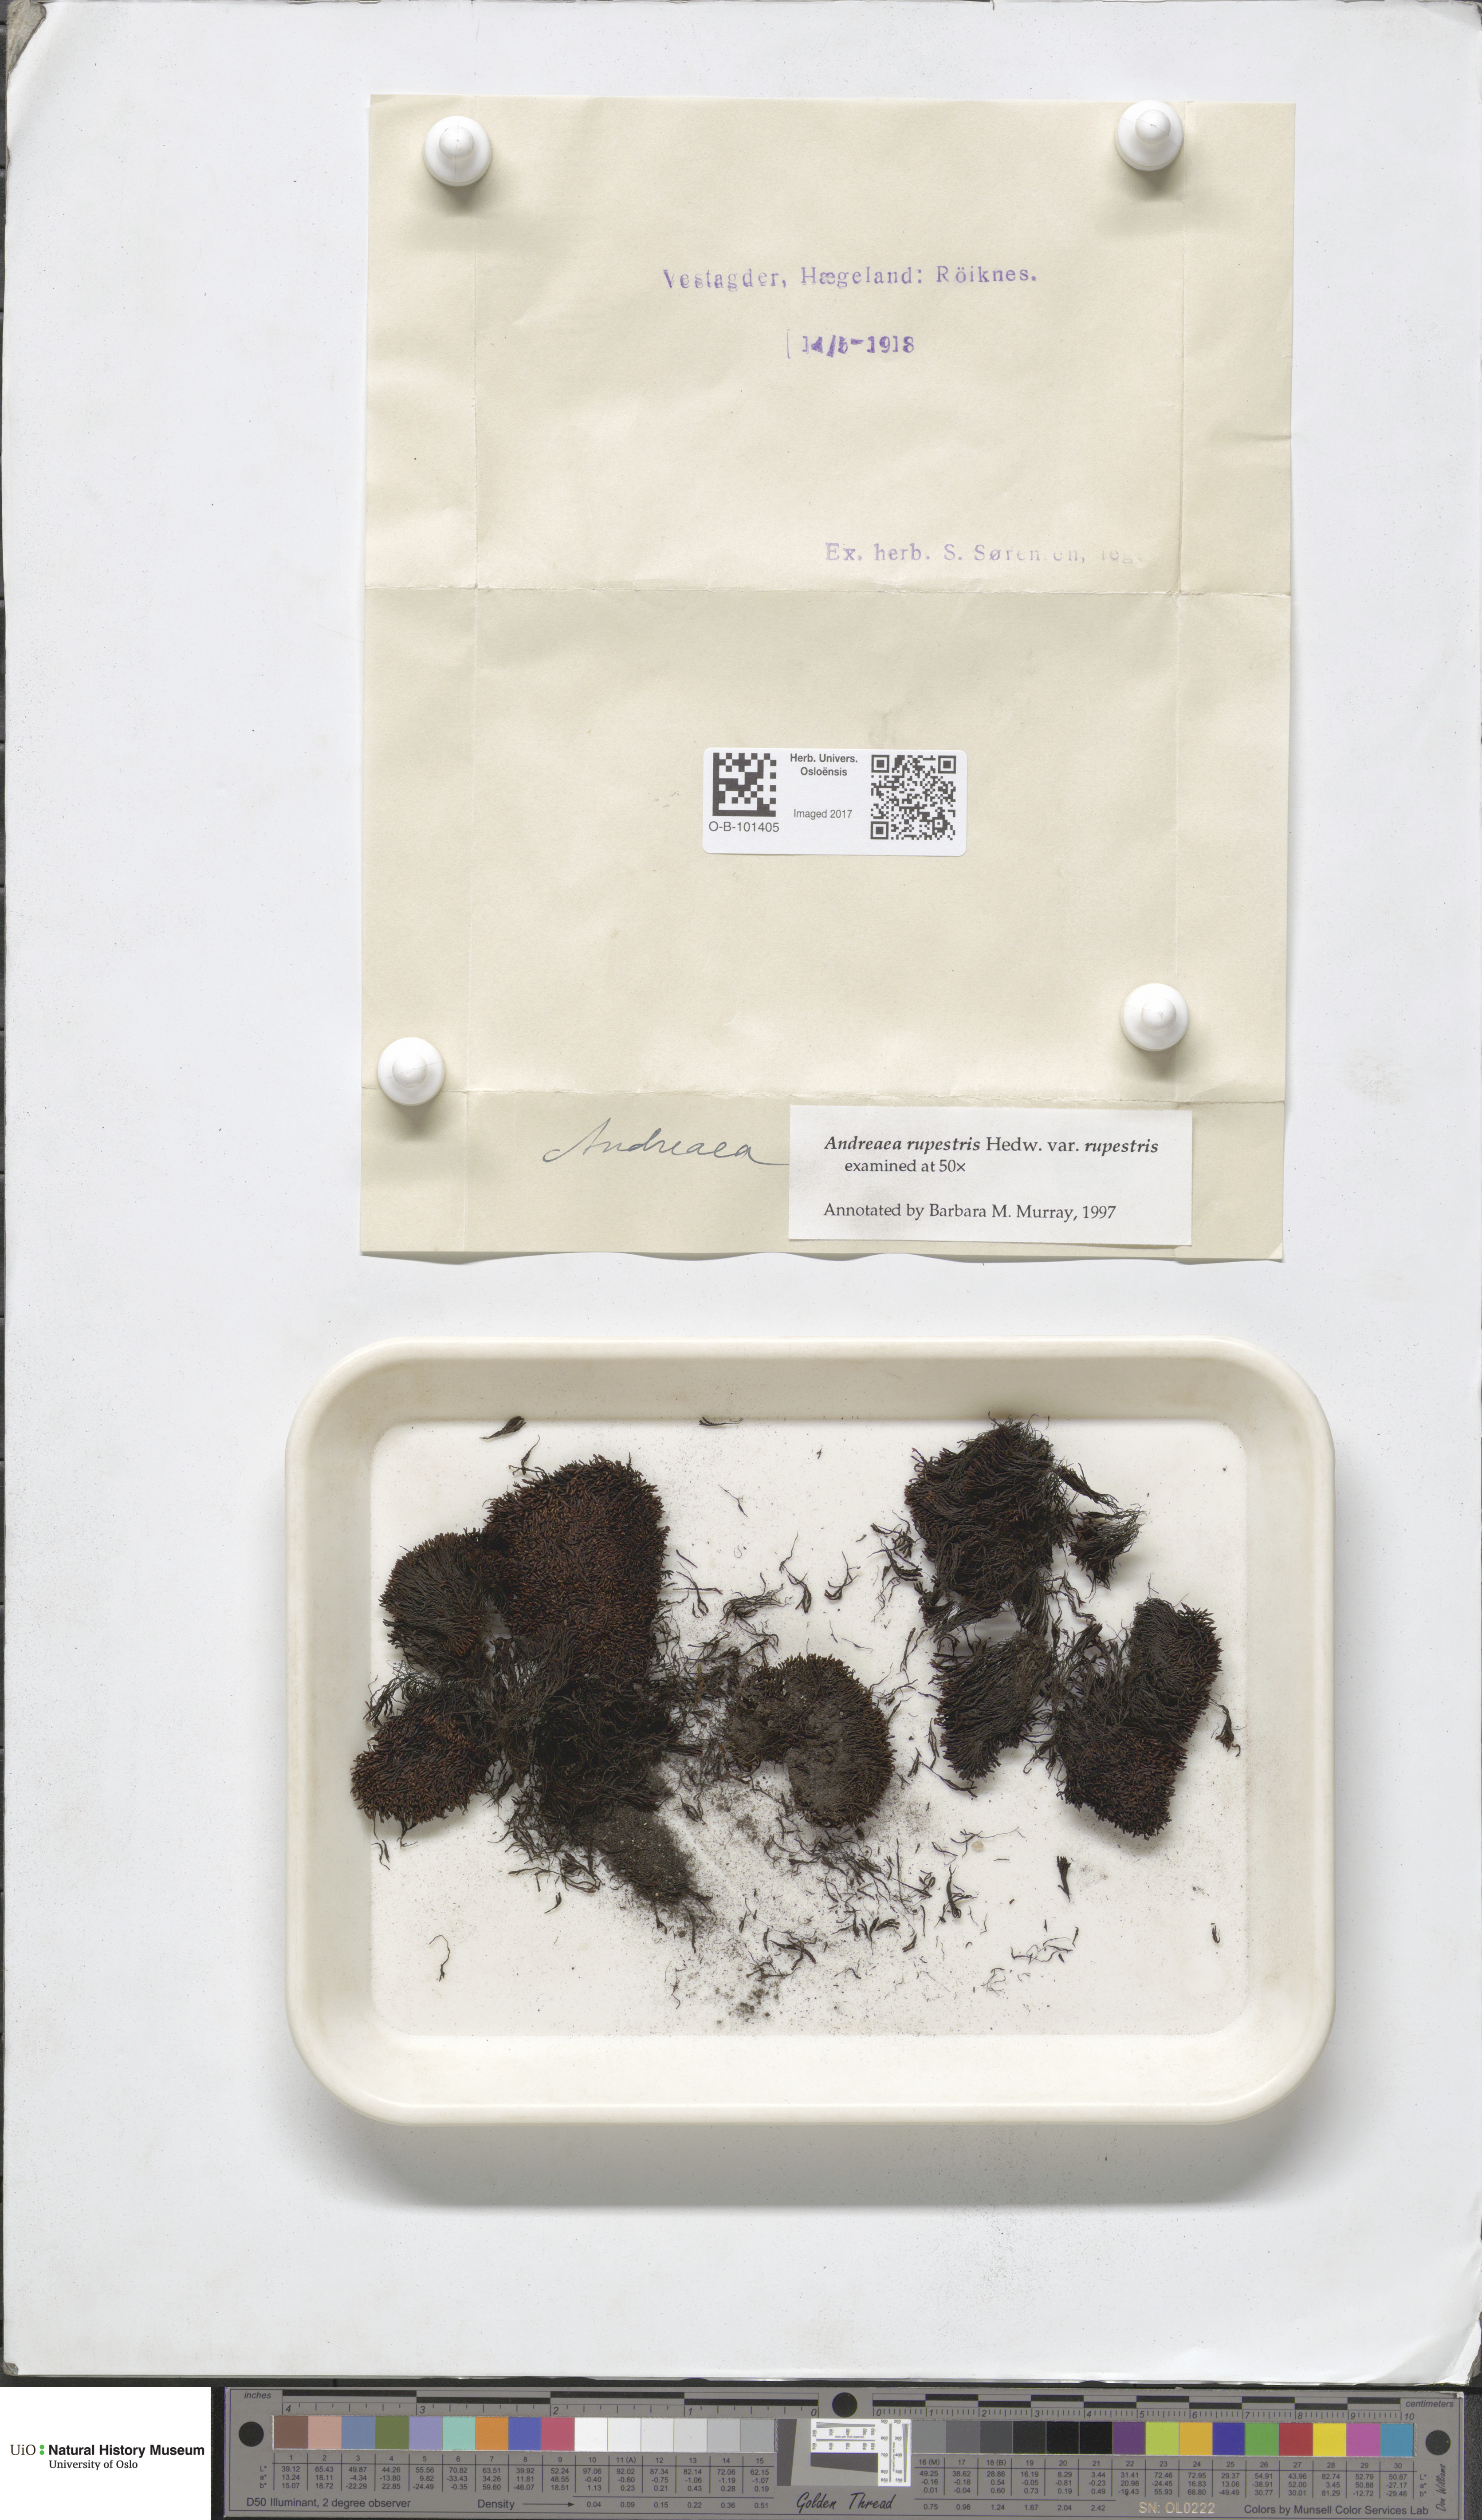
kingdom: Plantae
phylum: Bryophyta
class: Andreaeopsida
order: Andreaeales
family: Andreaeaceae
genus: Andreaea
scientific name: Andreaea rupestris
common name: Black rock moss
